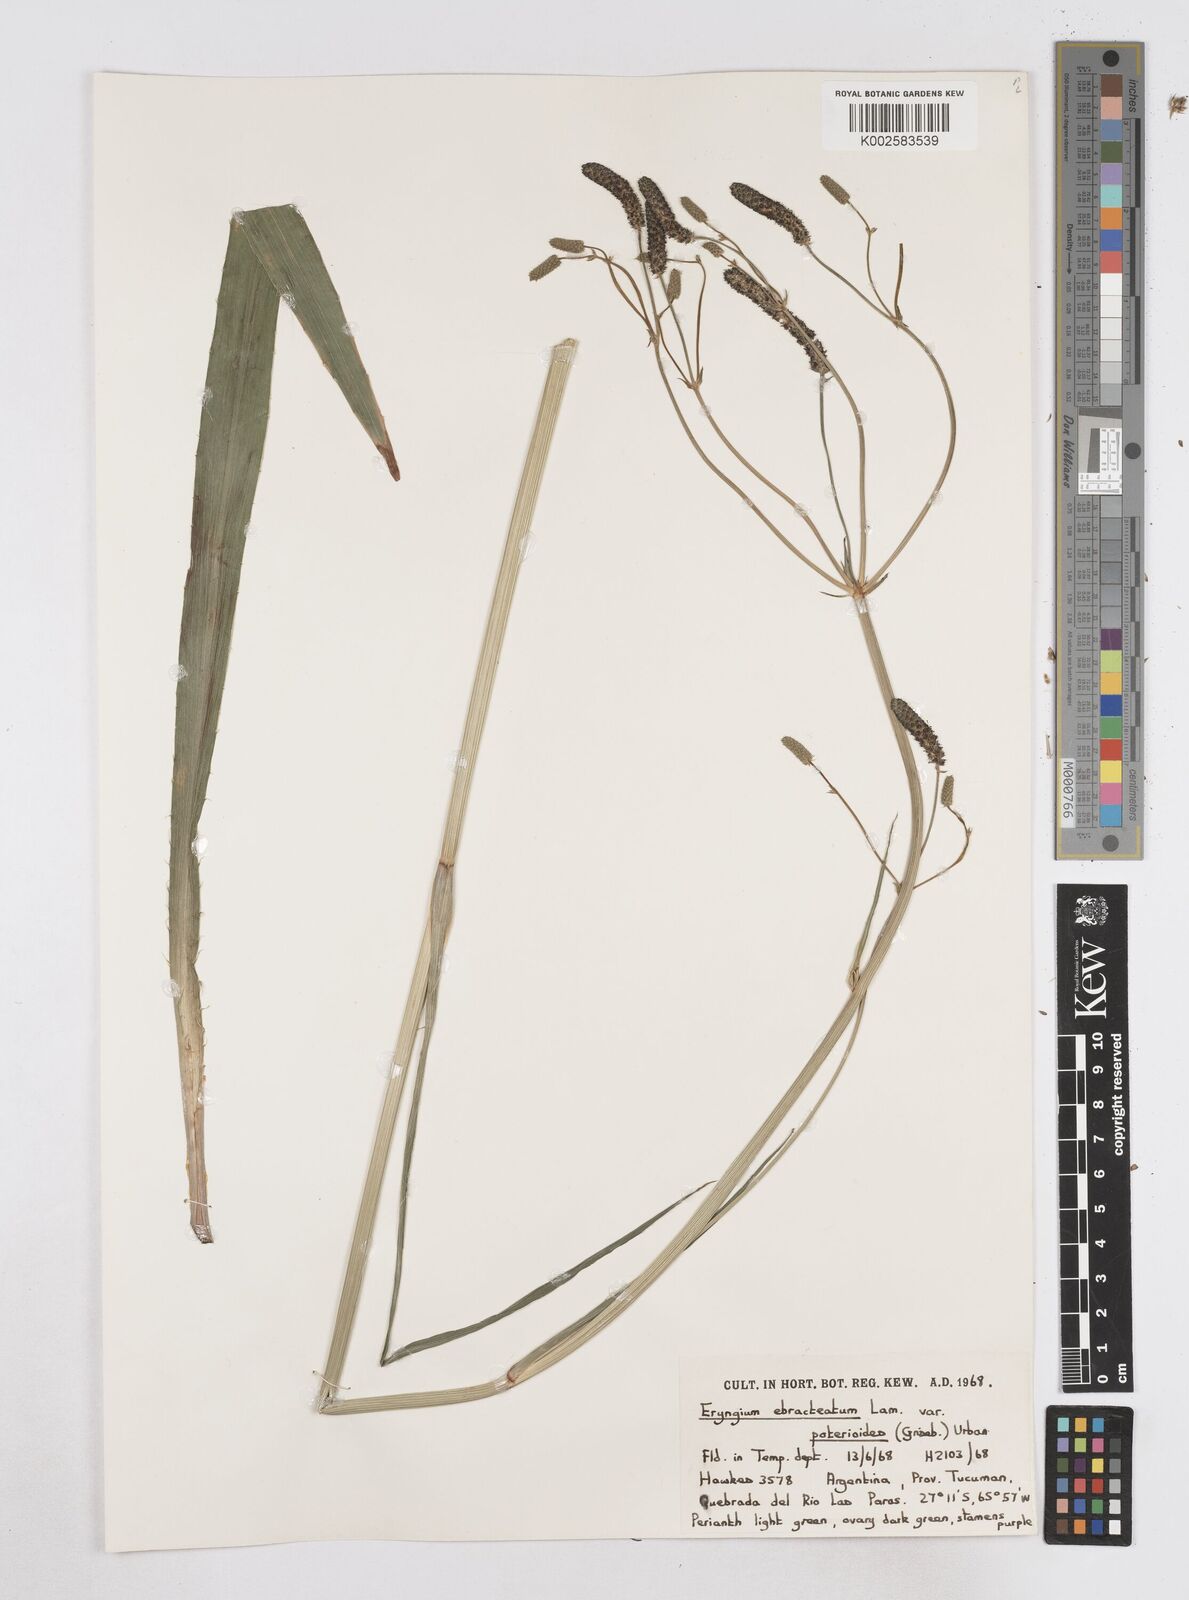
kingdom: Plantae
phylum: Tracheophyta
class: Magnoliopsida
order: Apiales
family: Apiaceae
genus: Eryngium
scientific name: Eryngium ebracteatum
